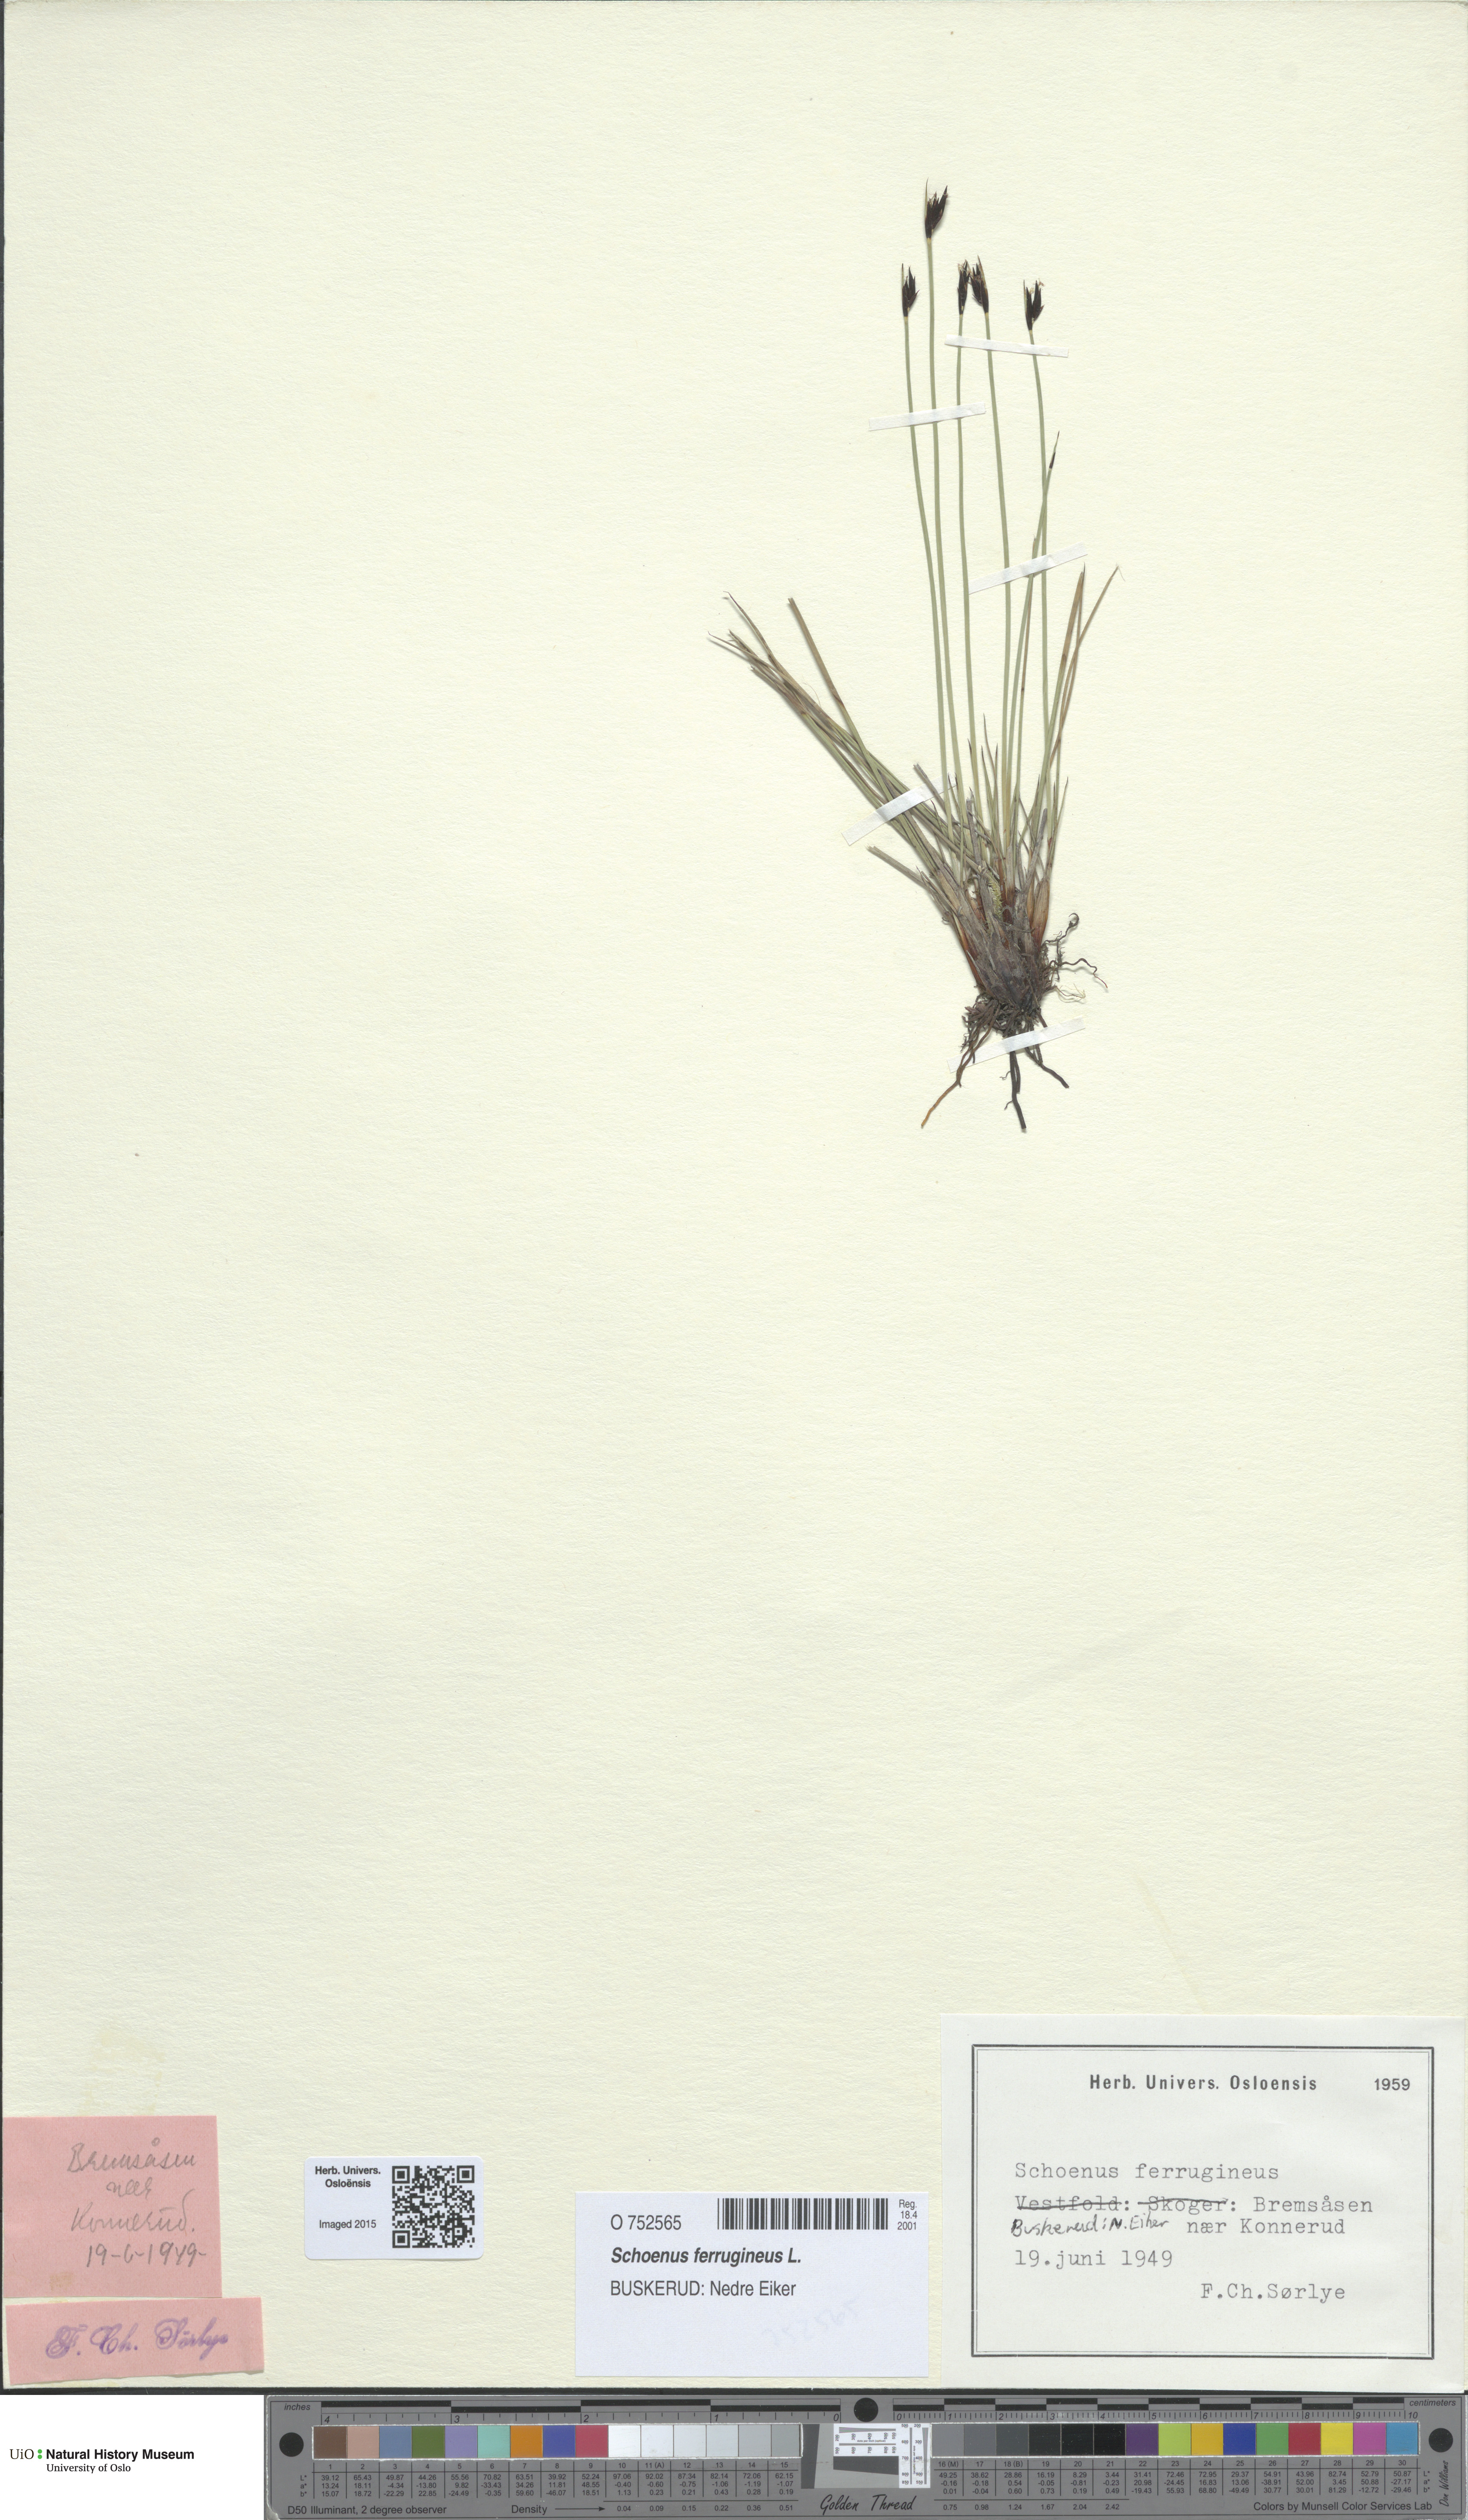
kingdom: Plantae
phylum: Tracheophyta
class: Liliopsida
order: Poales
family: Cyperaceae
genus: Schoenus
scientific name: Schoenus ferrugineus
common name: Brown bog-rush
